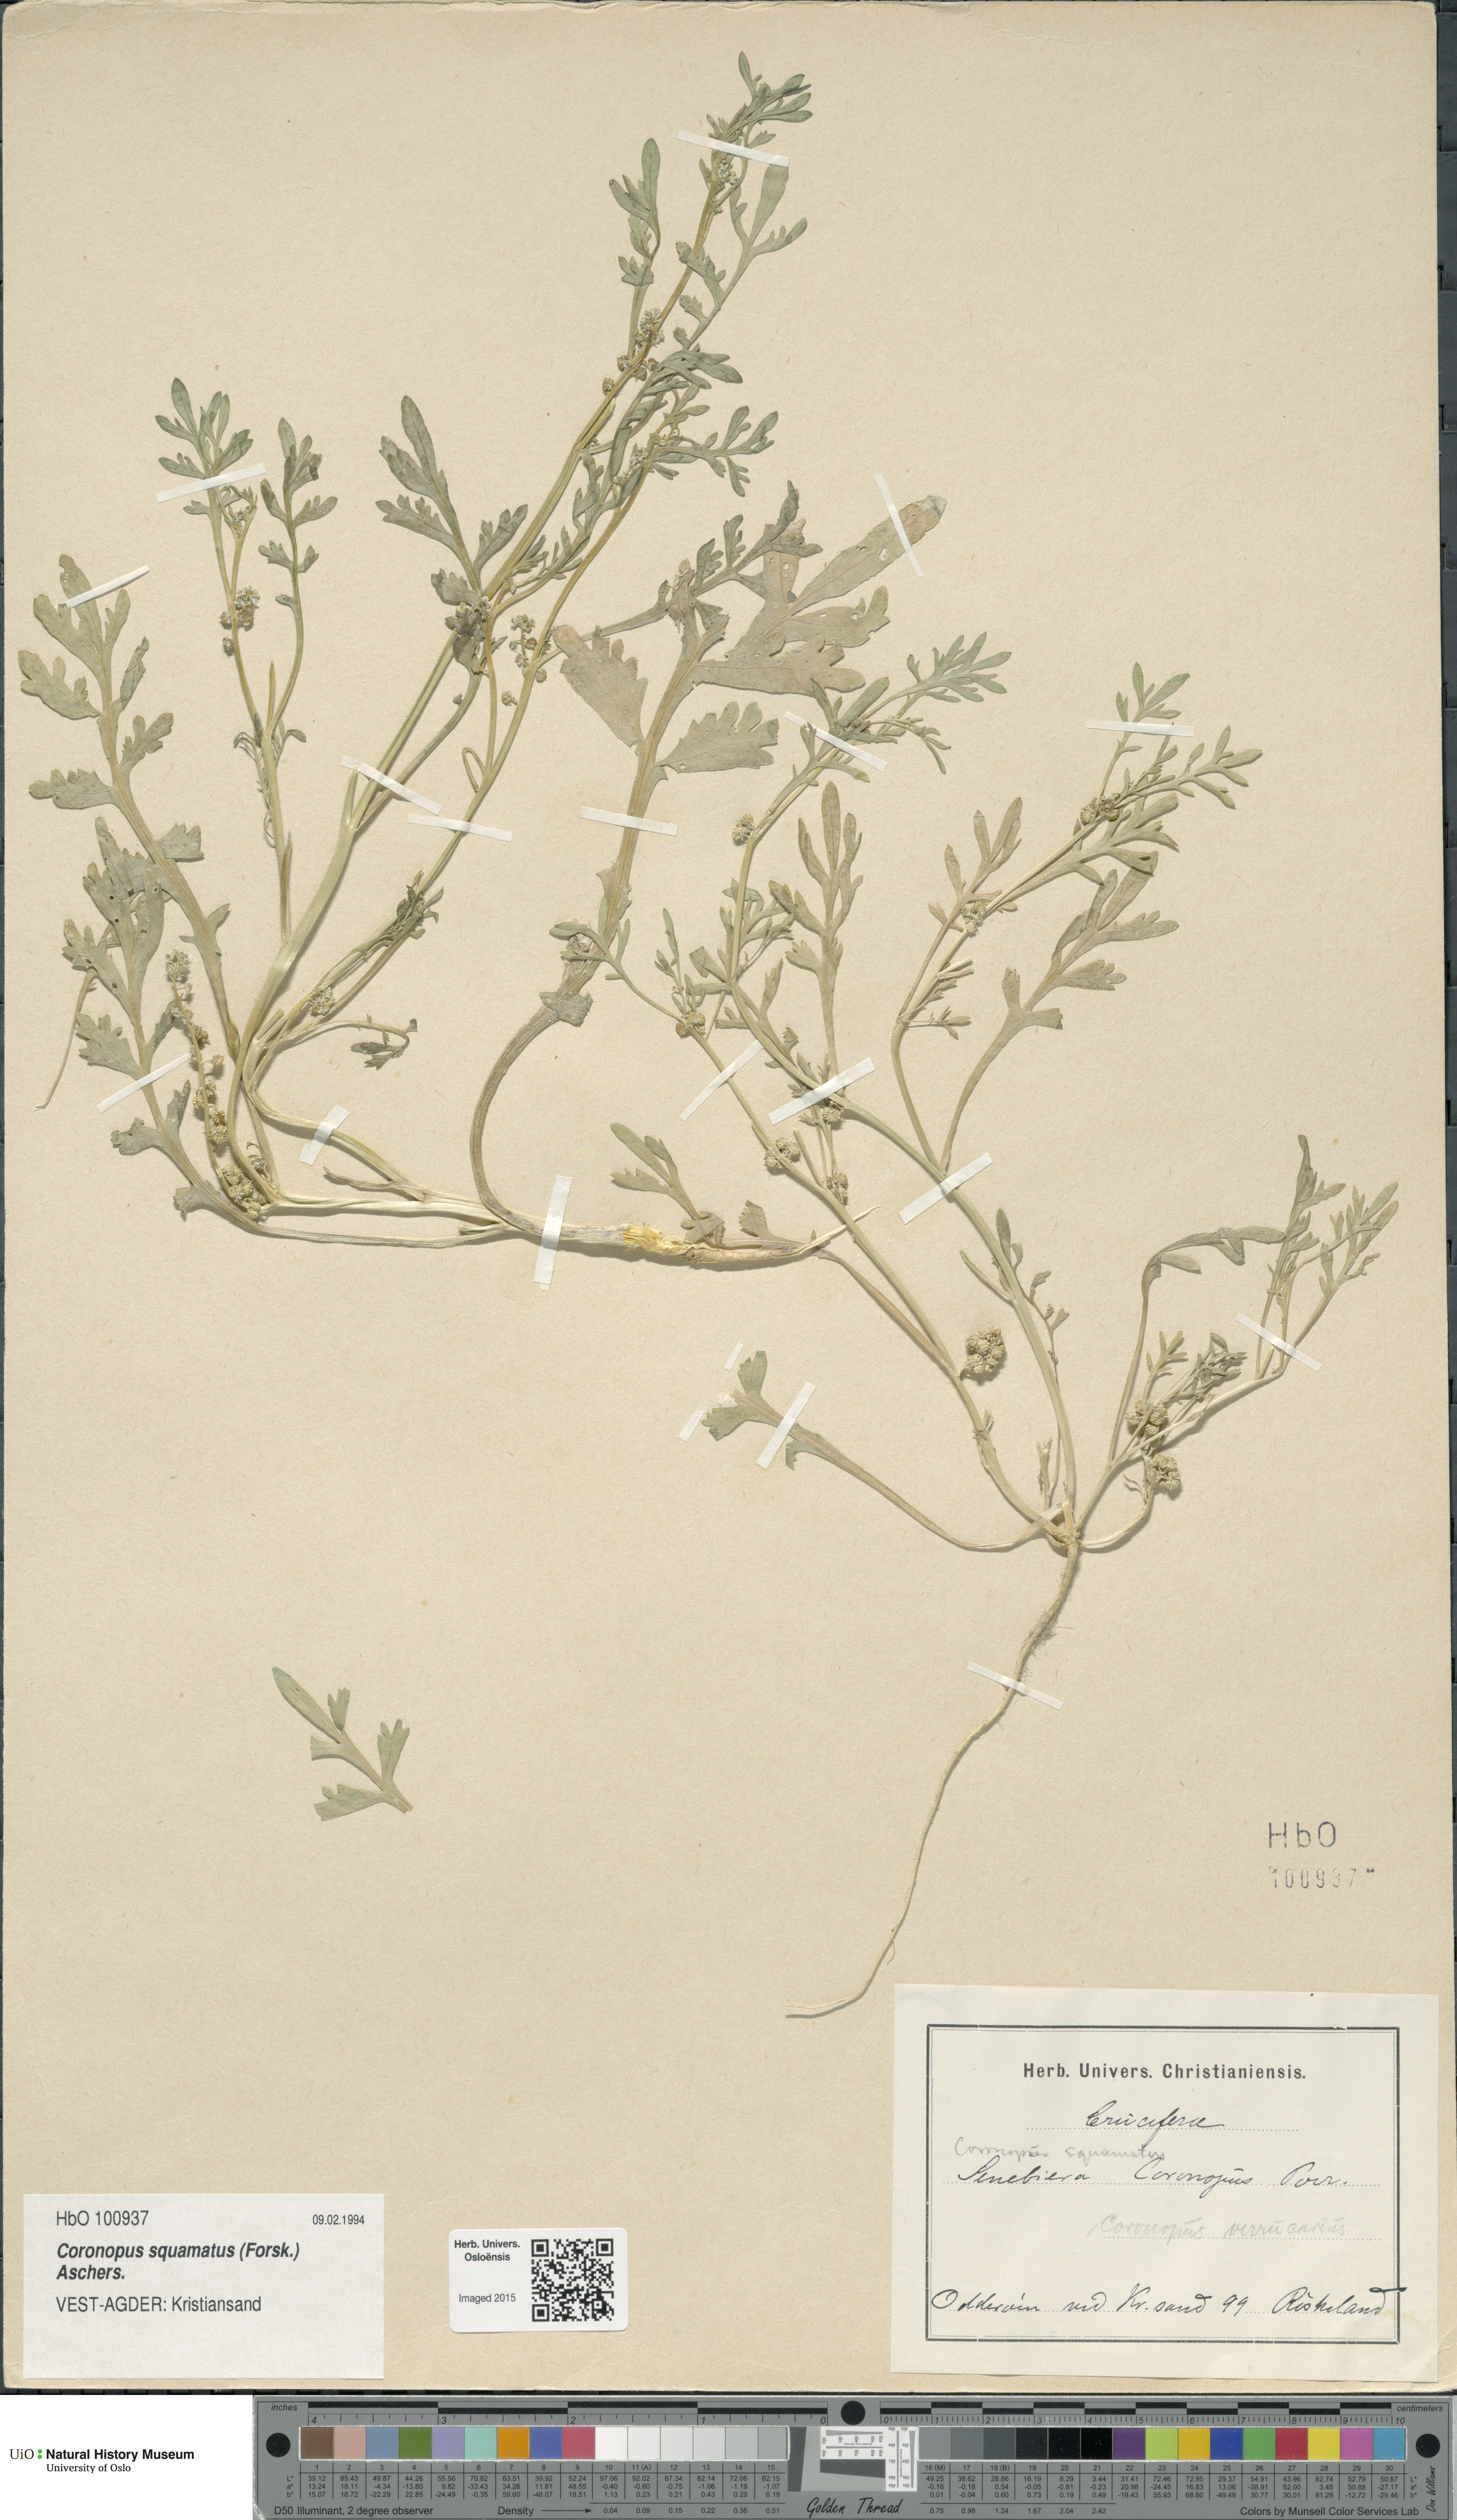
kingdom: Plantae
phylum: Tracheophyta
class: Magnoliopsida
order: Brassicales
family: Brassicaceae
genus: Lepidium
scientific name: Lepidium coronopus
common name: Greater swinecress
